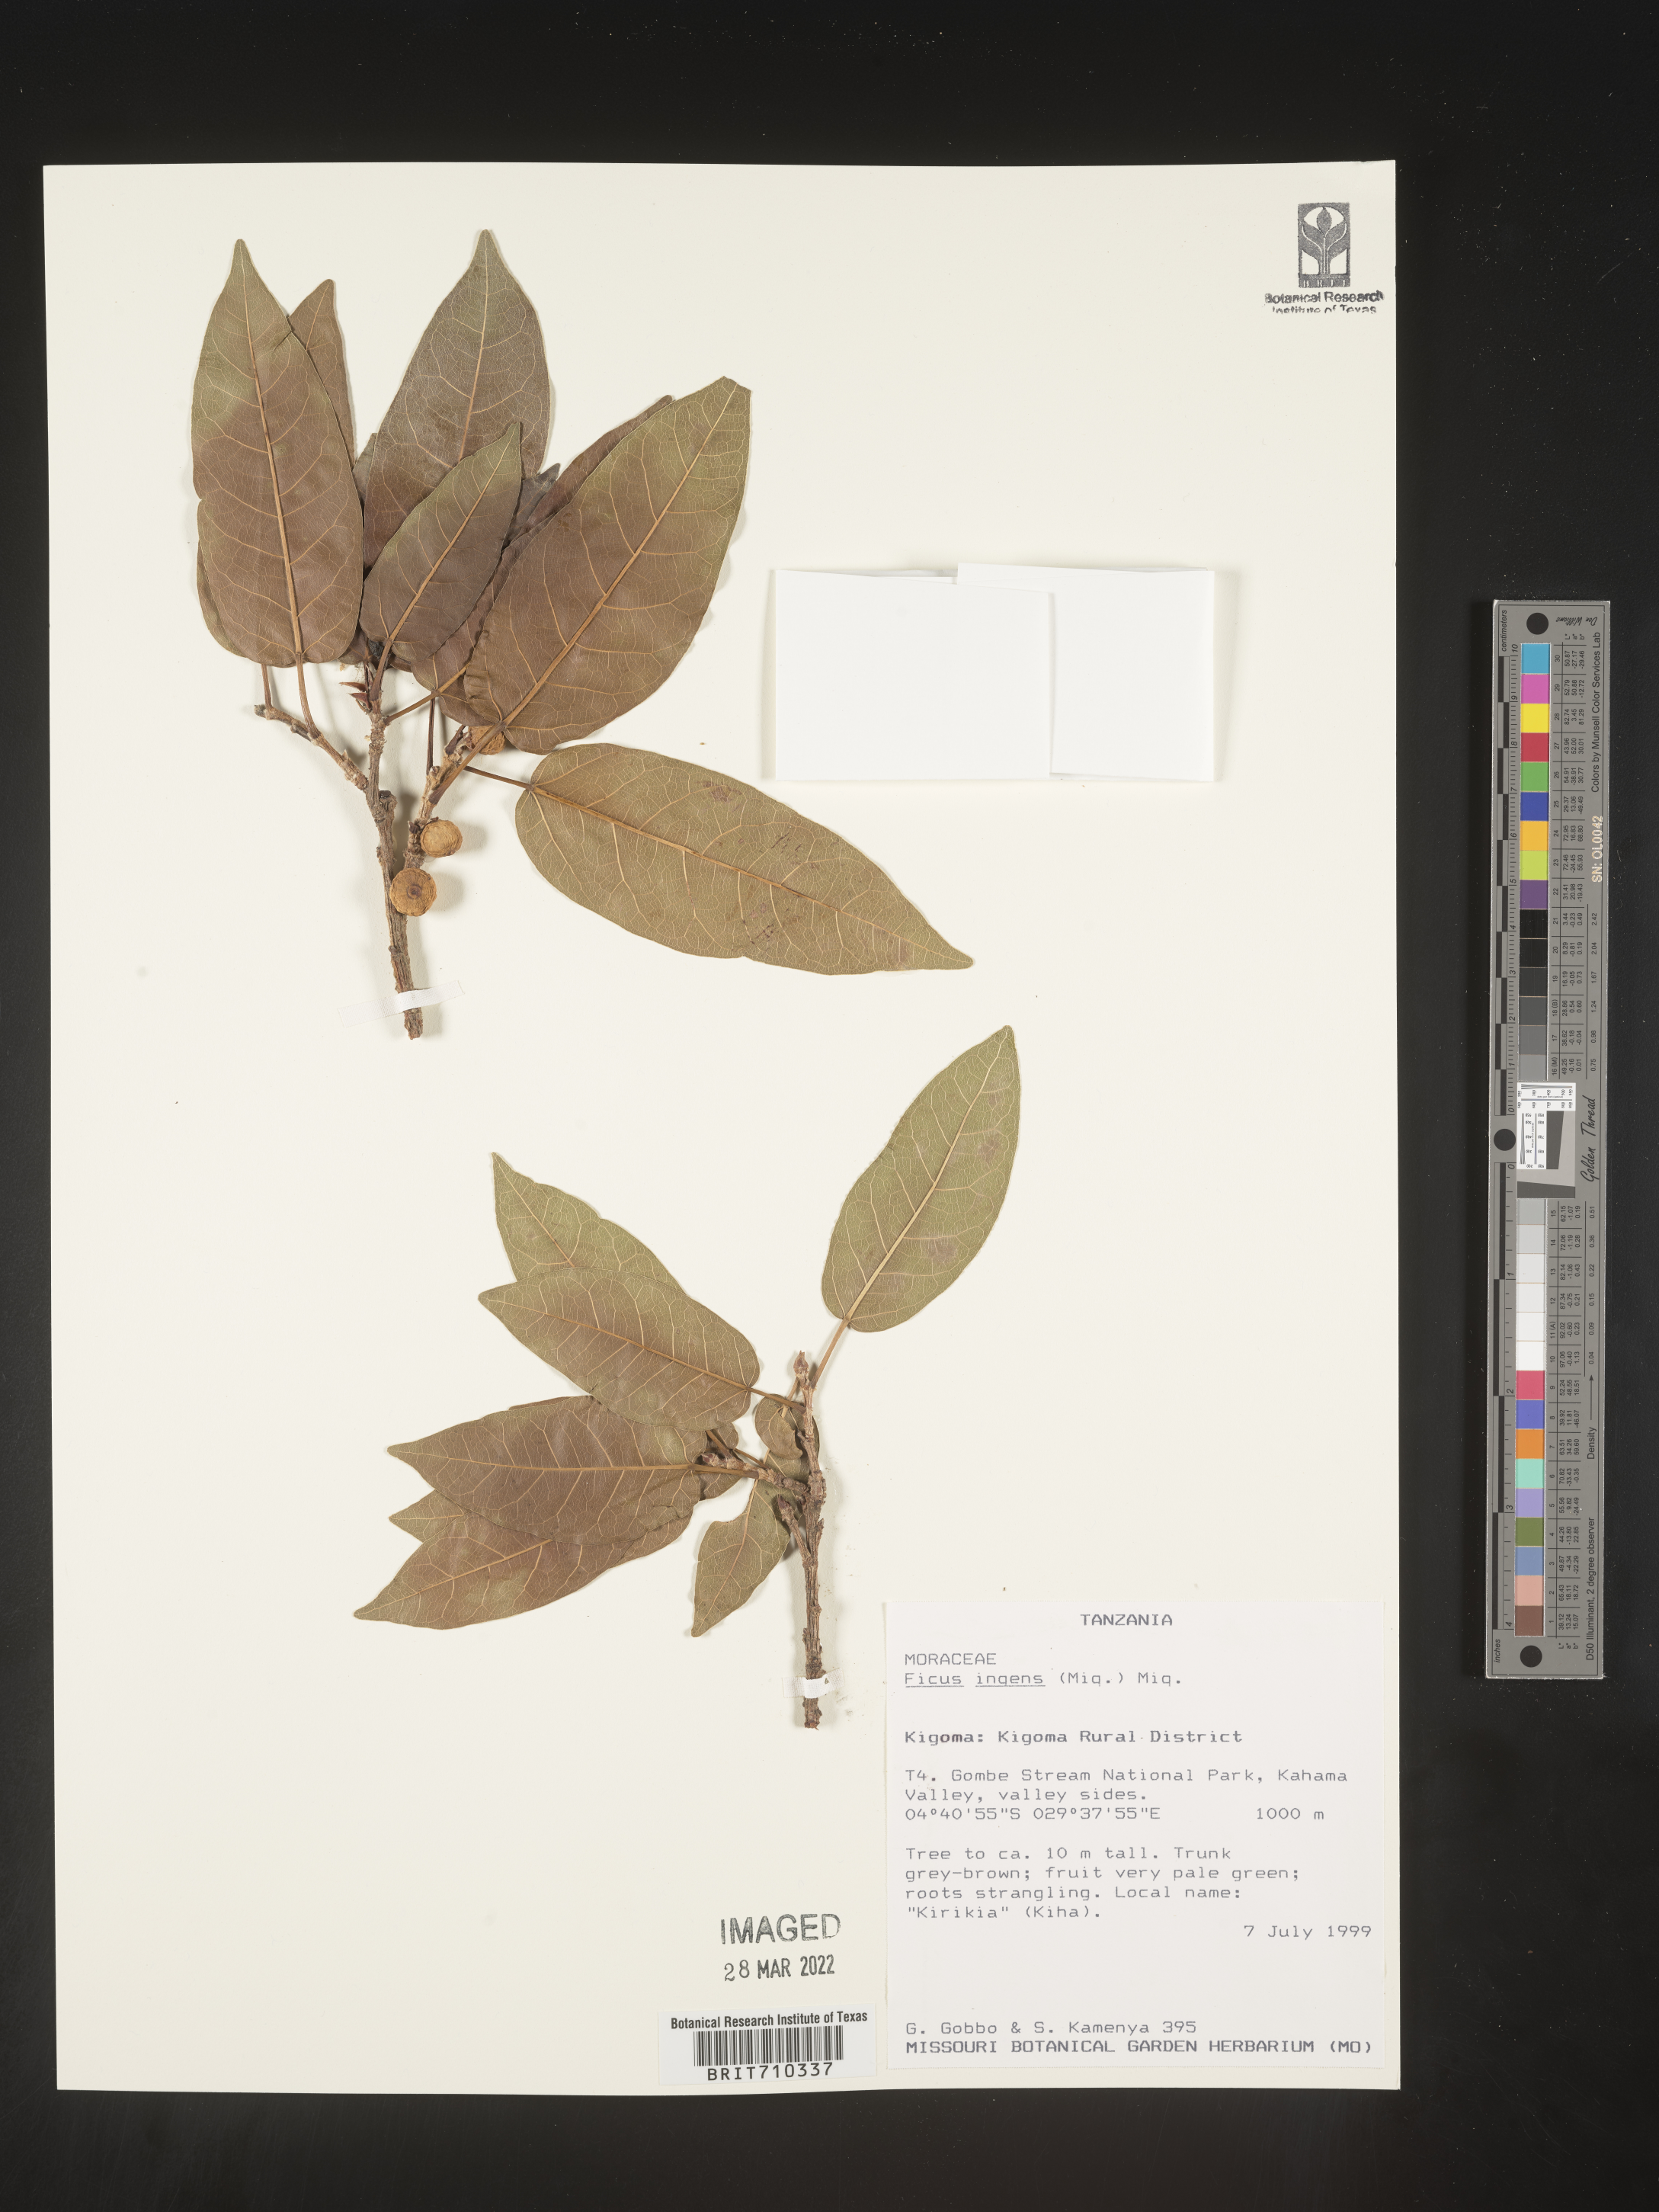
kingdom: Plantae
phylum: Tracheophyta
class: Magnoliopsida
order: Rosales
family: Moraceae
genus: Ficus
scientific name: Ficus
